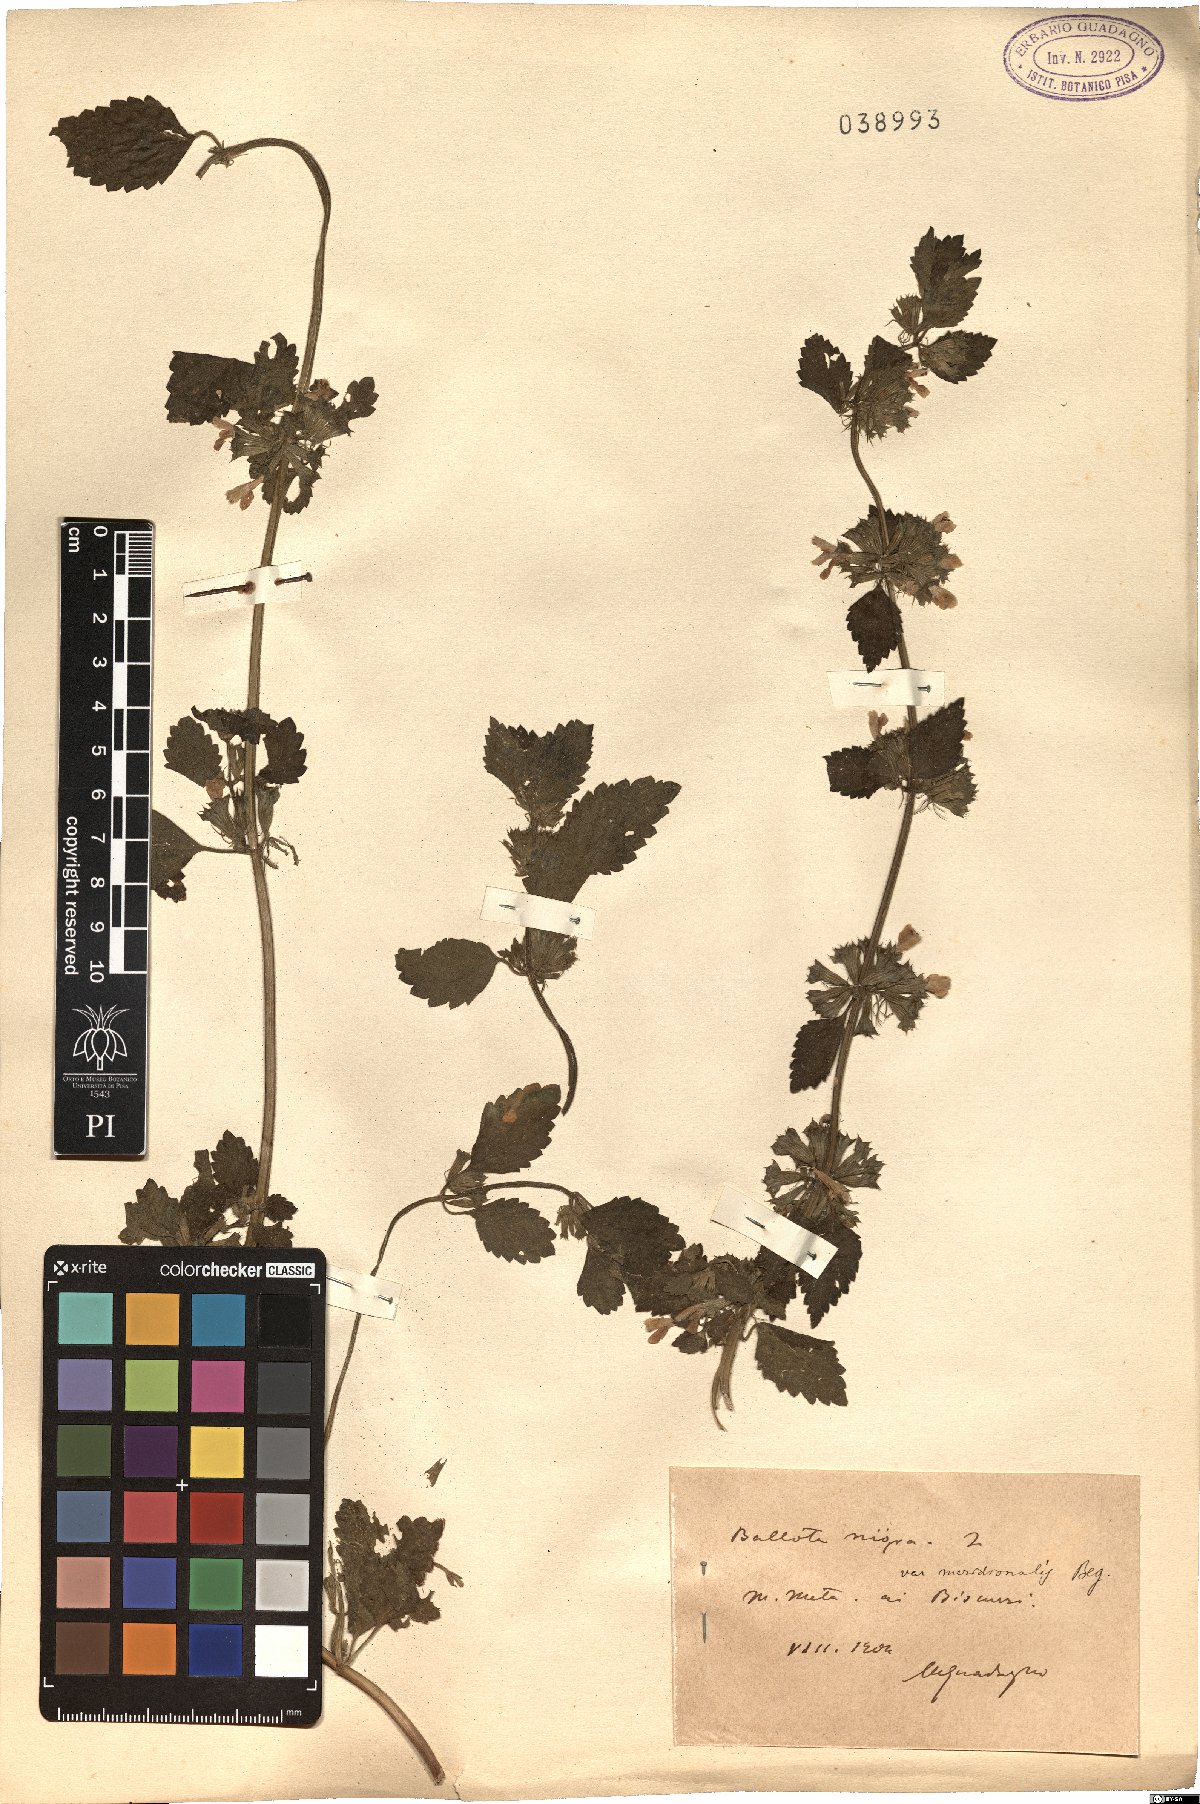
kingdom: Plantae
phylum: Tracheophyta
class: Magnoliopsida
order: Lamiales
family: Lamiaceae
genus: Ballota
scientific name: Ballota nigra
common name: Black horehound
